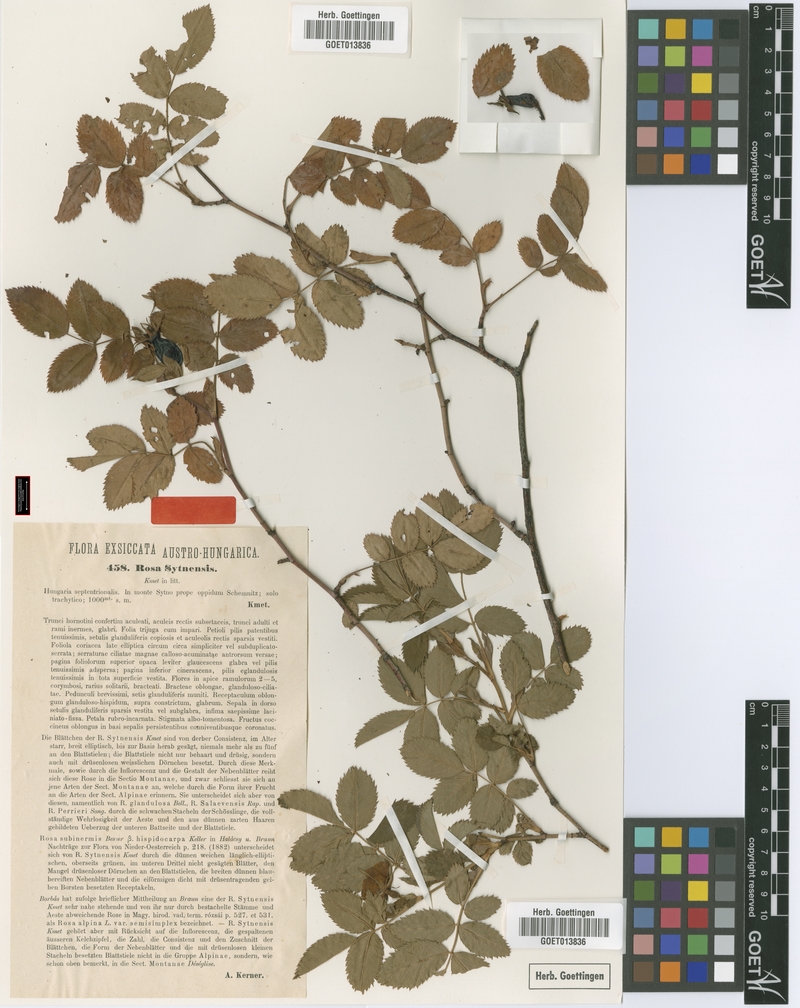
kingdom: Plantae
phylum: Tracheophyta
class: Magnoliopsida
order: Rosales
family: Rosaceae
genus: Rosa
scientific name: Rosa sytnensis
